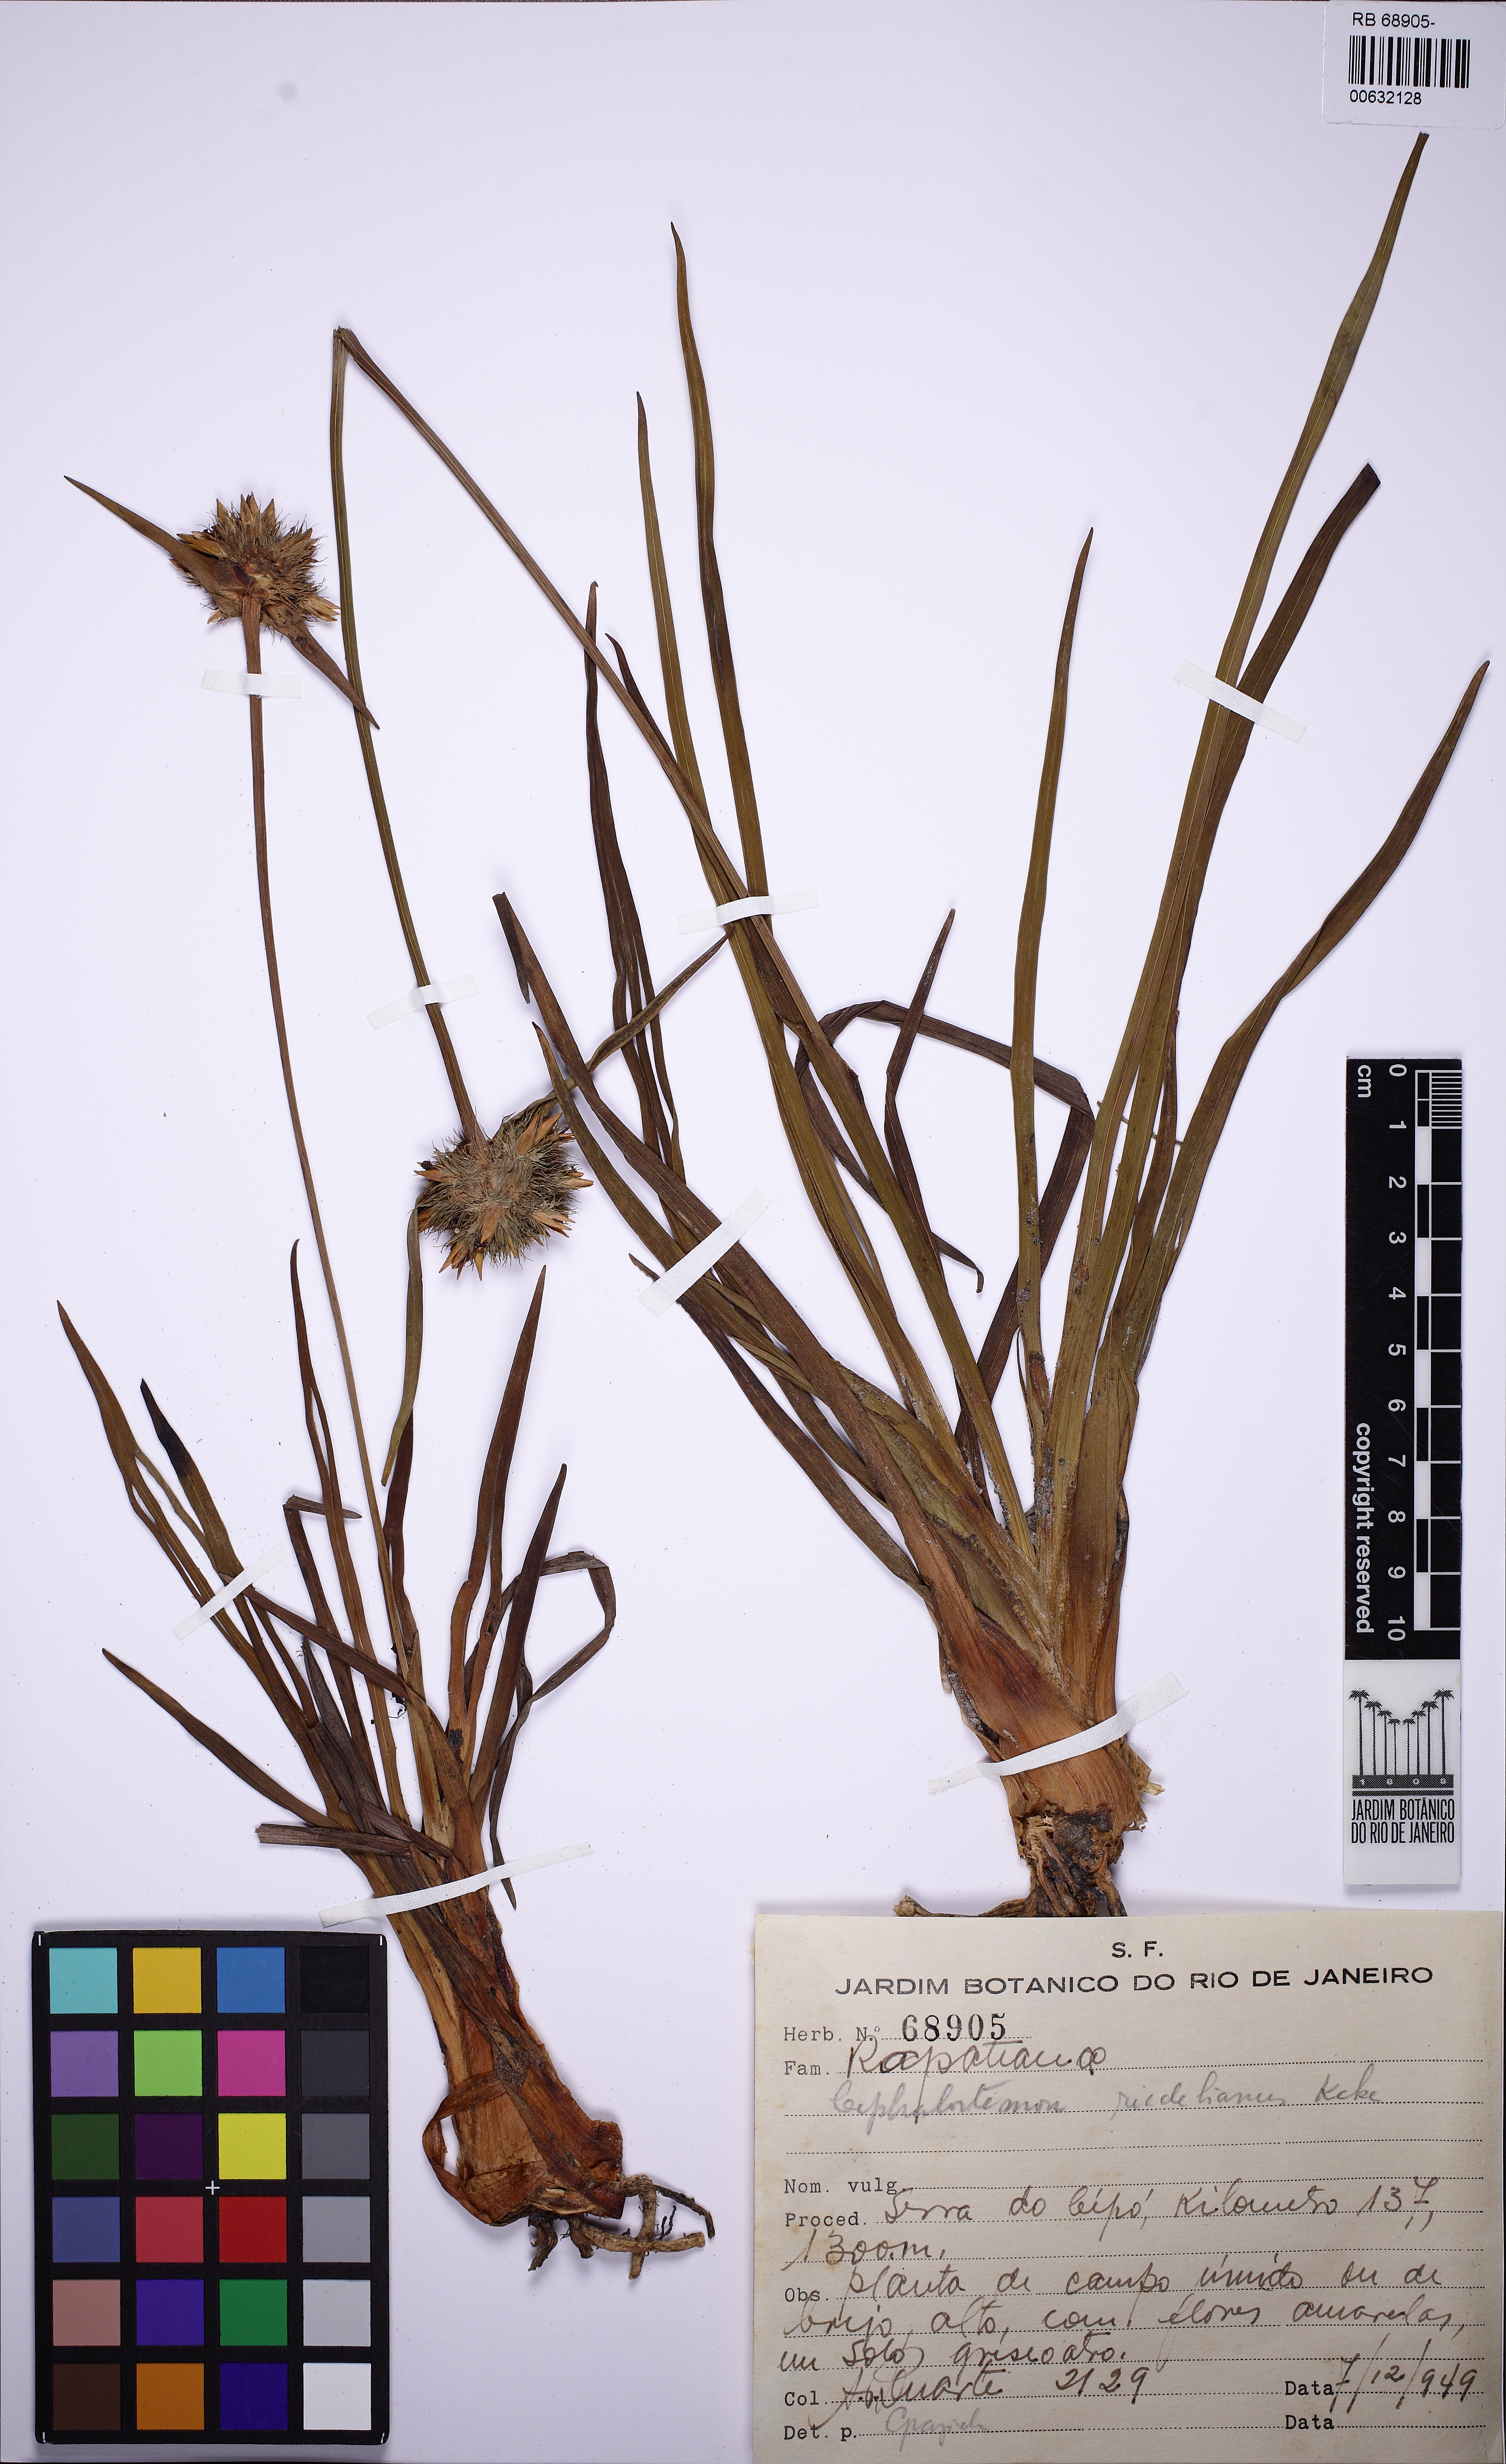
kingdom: Plantae
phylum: Tracheophyta
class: Liliopsida
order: Poales
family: Rapateaceae
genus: Cephalostemon
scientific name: Cephalostemon riedelianus
